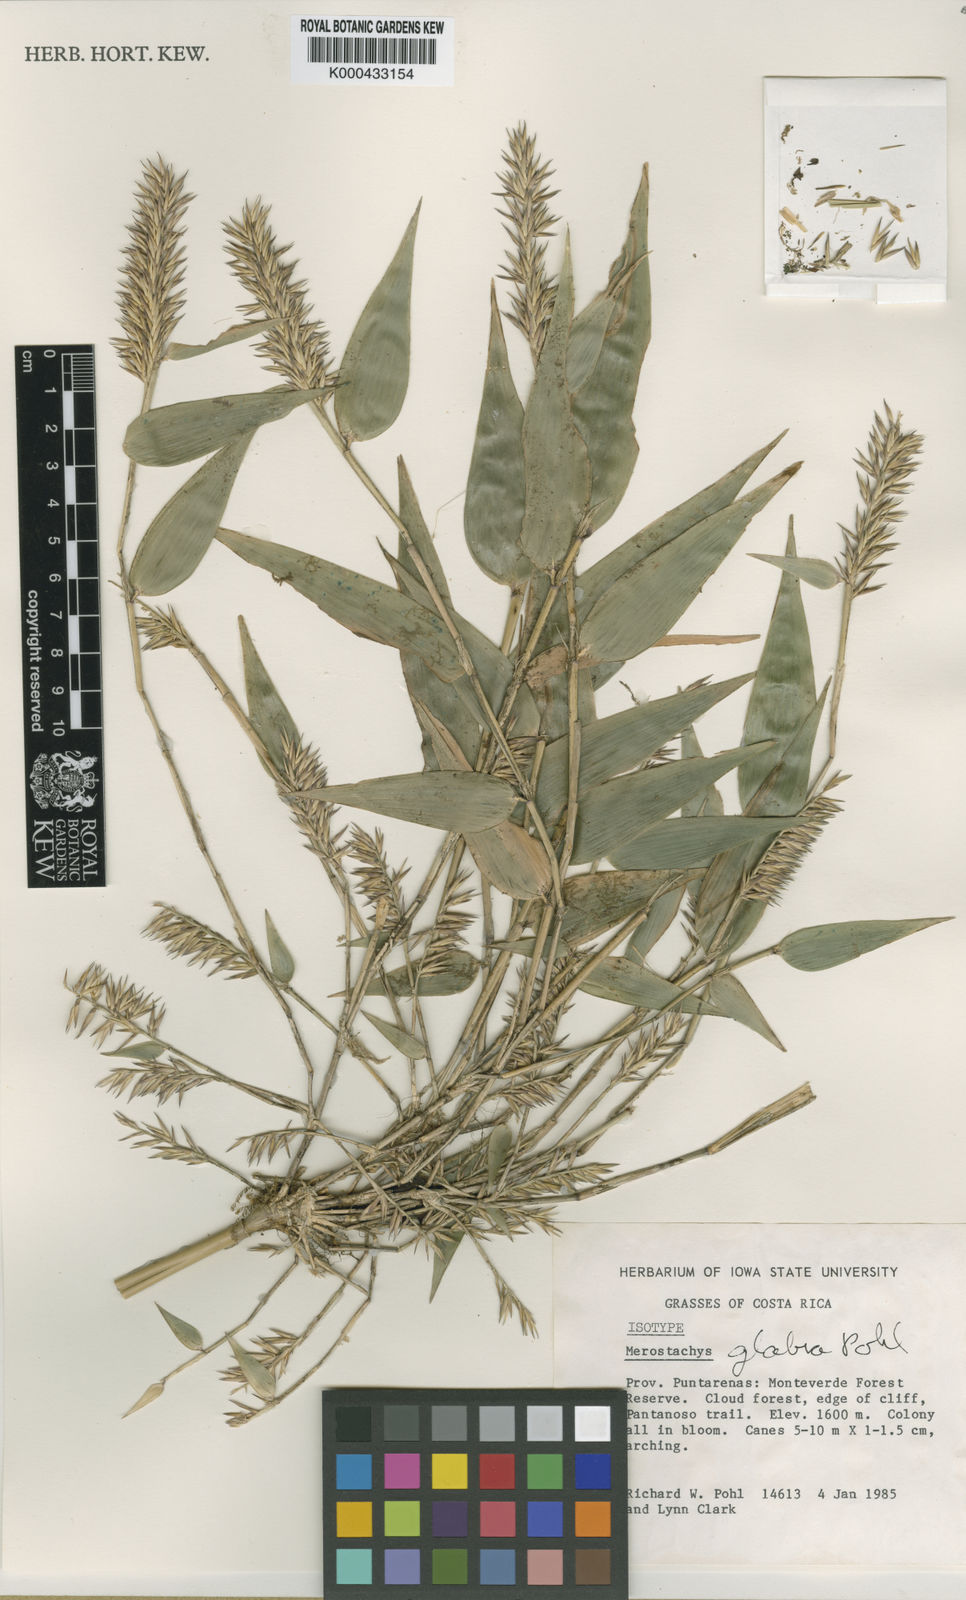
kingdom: Plantae
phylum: Tracheophyta
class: Liliopsida
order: Poales
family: Poaceae
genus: Merostachys
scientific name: Merostachys
